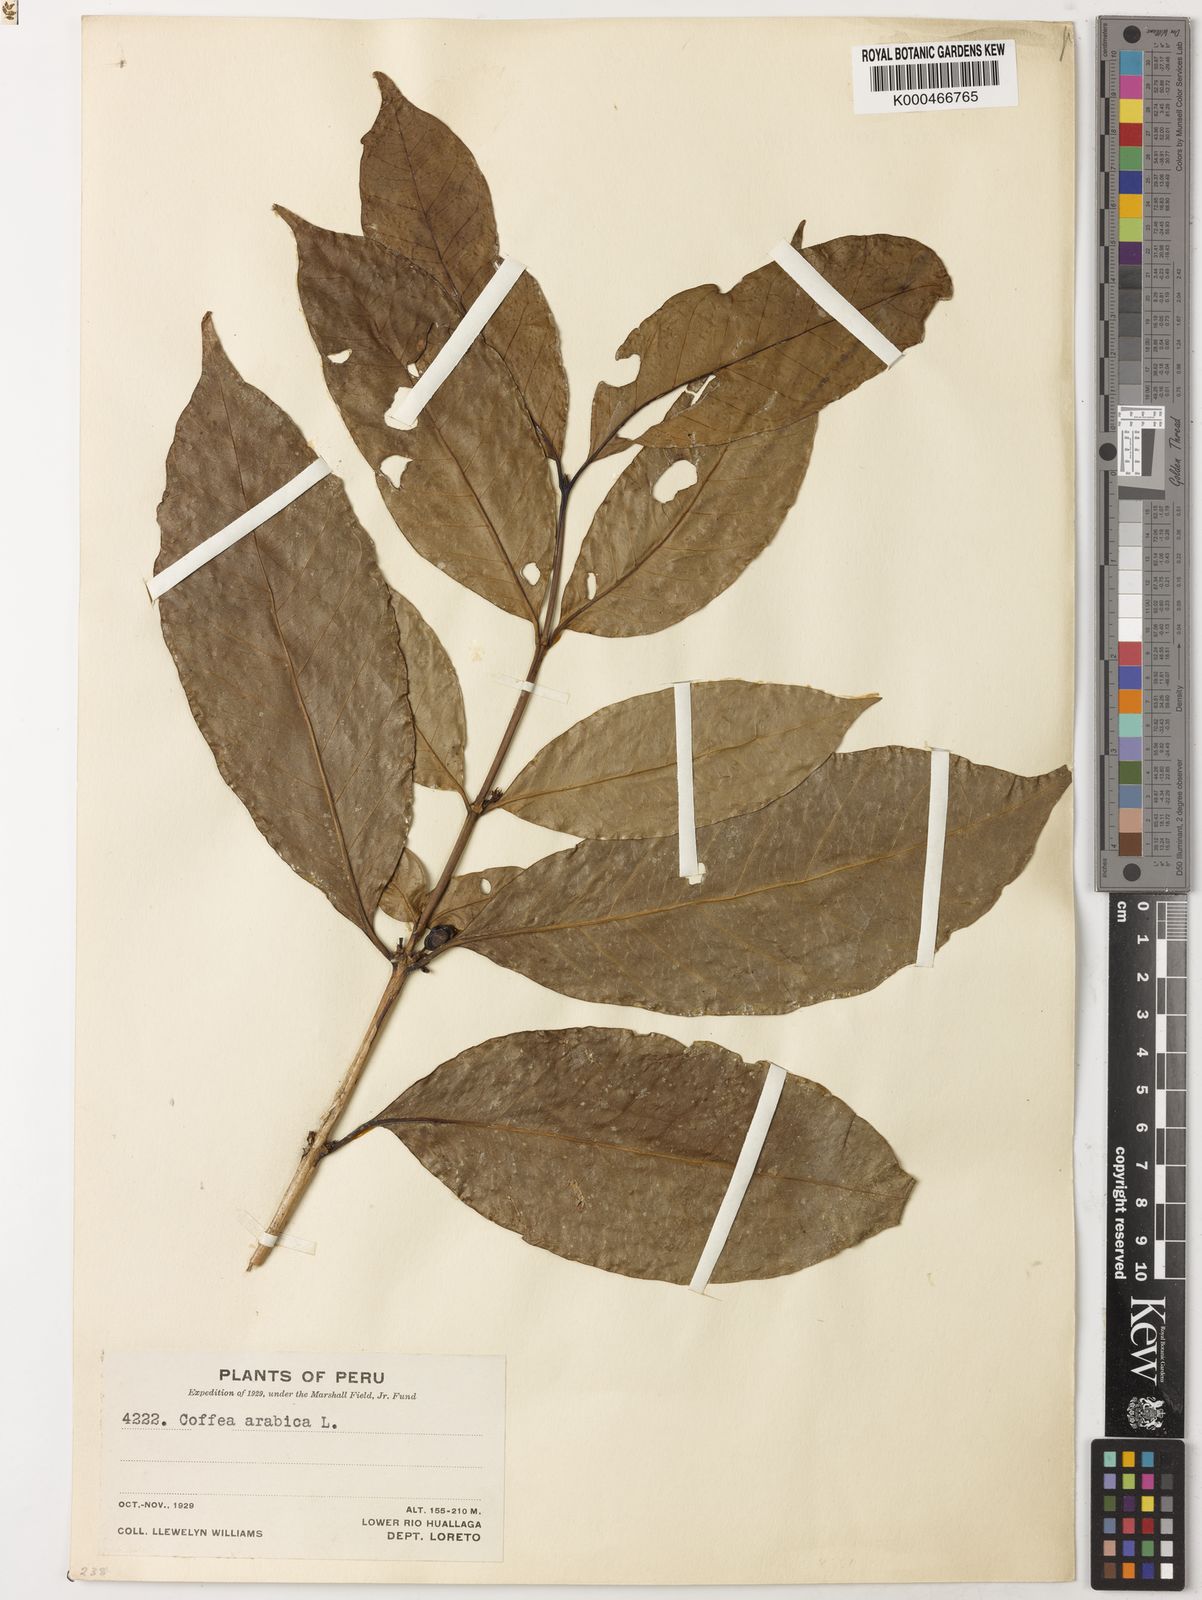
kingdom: Plantae
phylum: Tracheophyta
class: Magnoliopsida
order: Gentianales
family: Rubiaceae
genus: Coffea
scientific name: Coffea arabica
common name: Coffee
